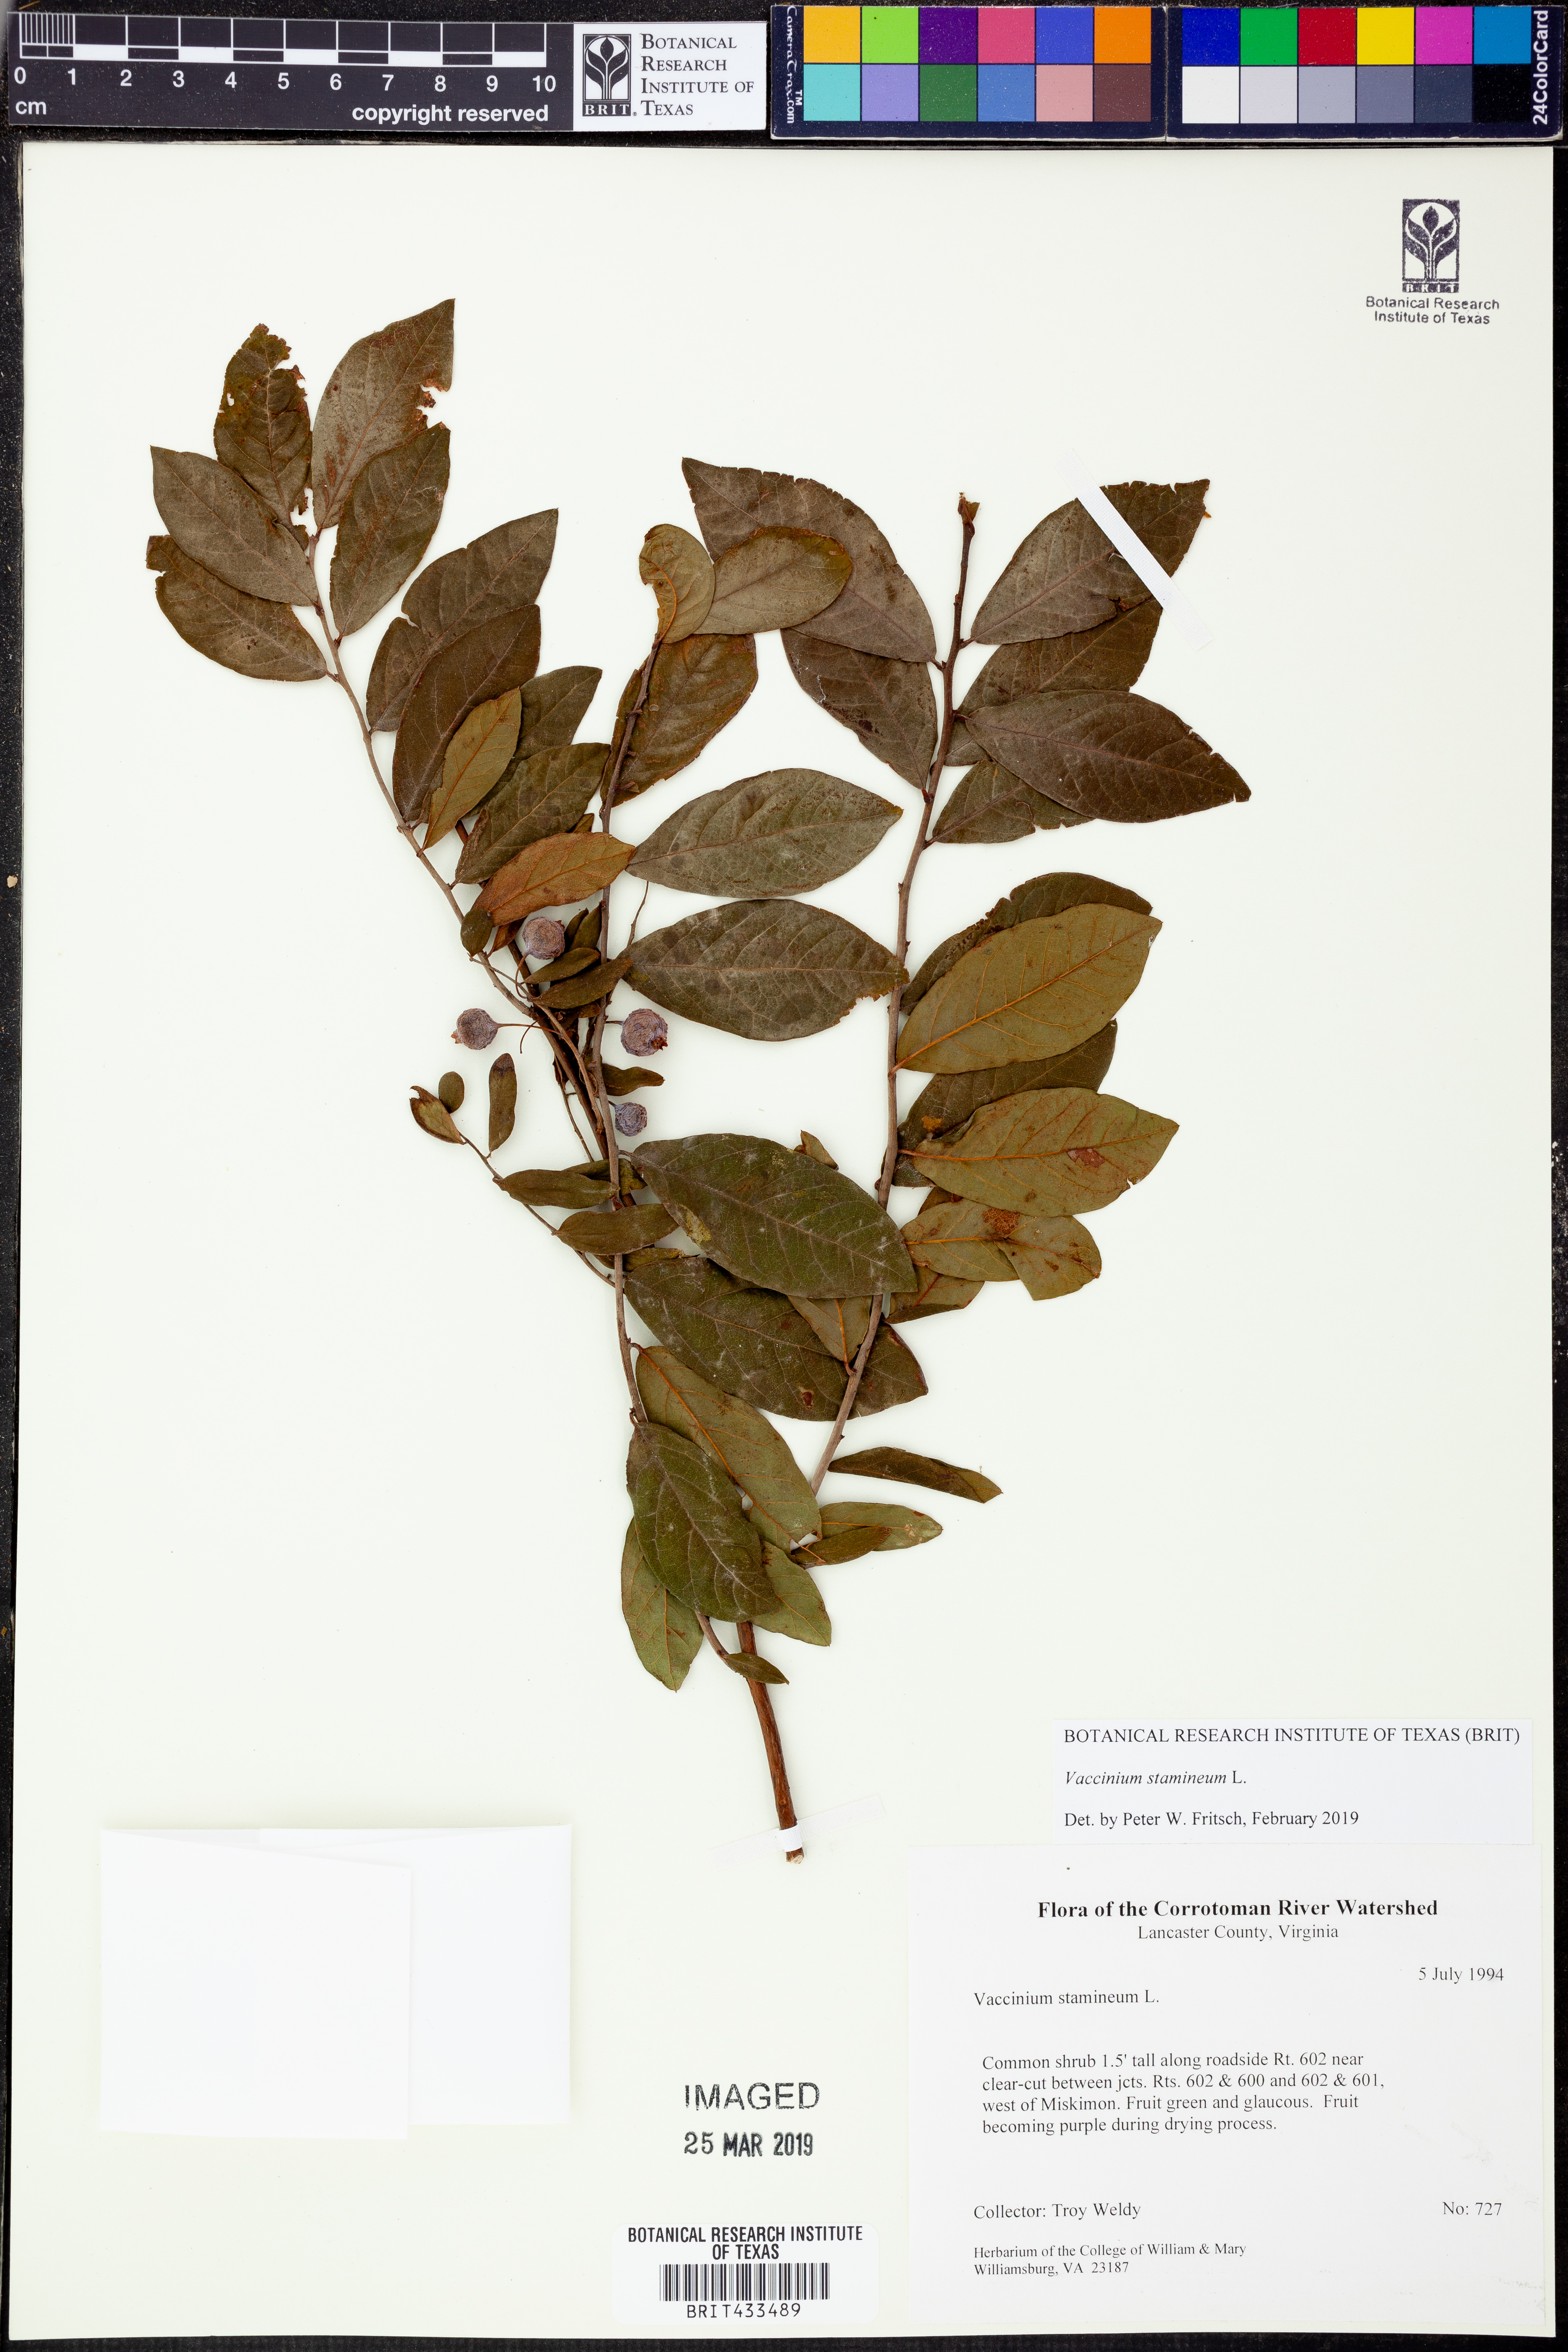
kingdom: Plantae
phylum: Tracheophyta
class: Magnoliopsida
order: Ericales
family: Ericaceae
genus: Vaccinium
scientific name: Vaccinium stamineum
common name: Deerberry
